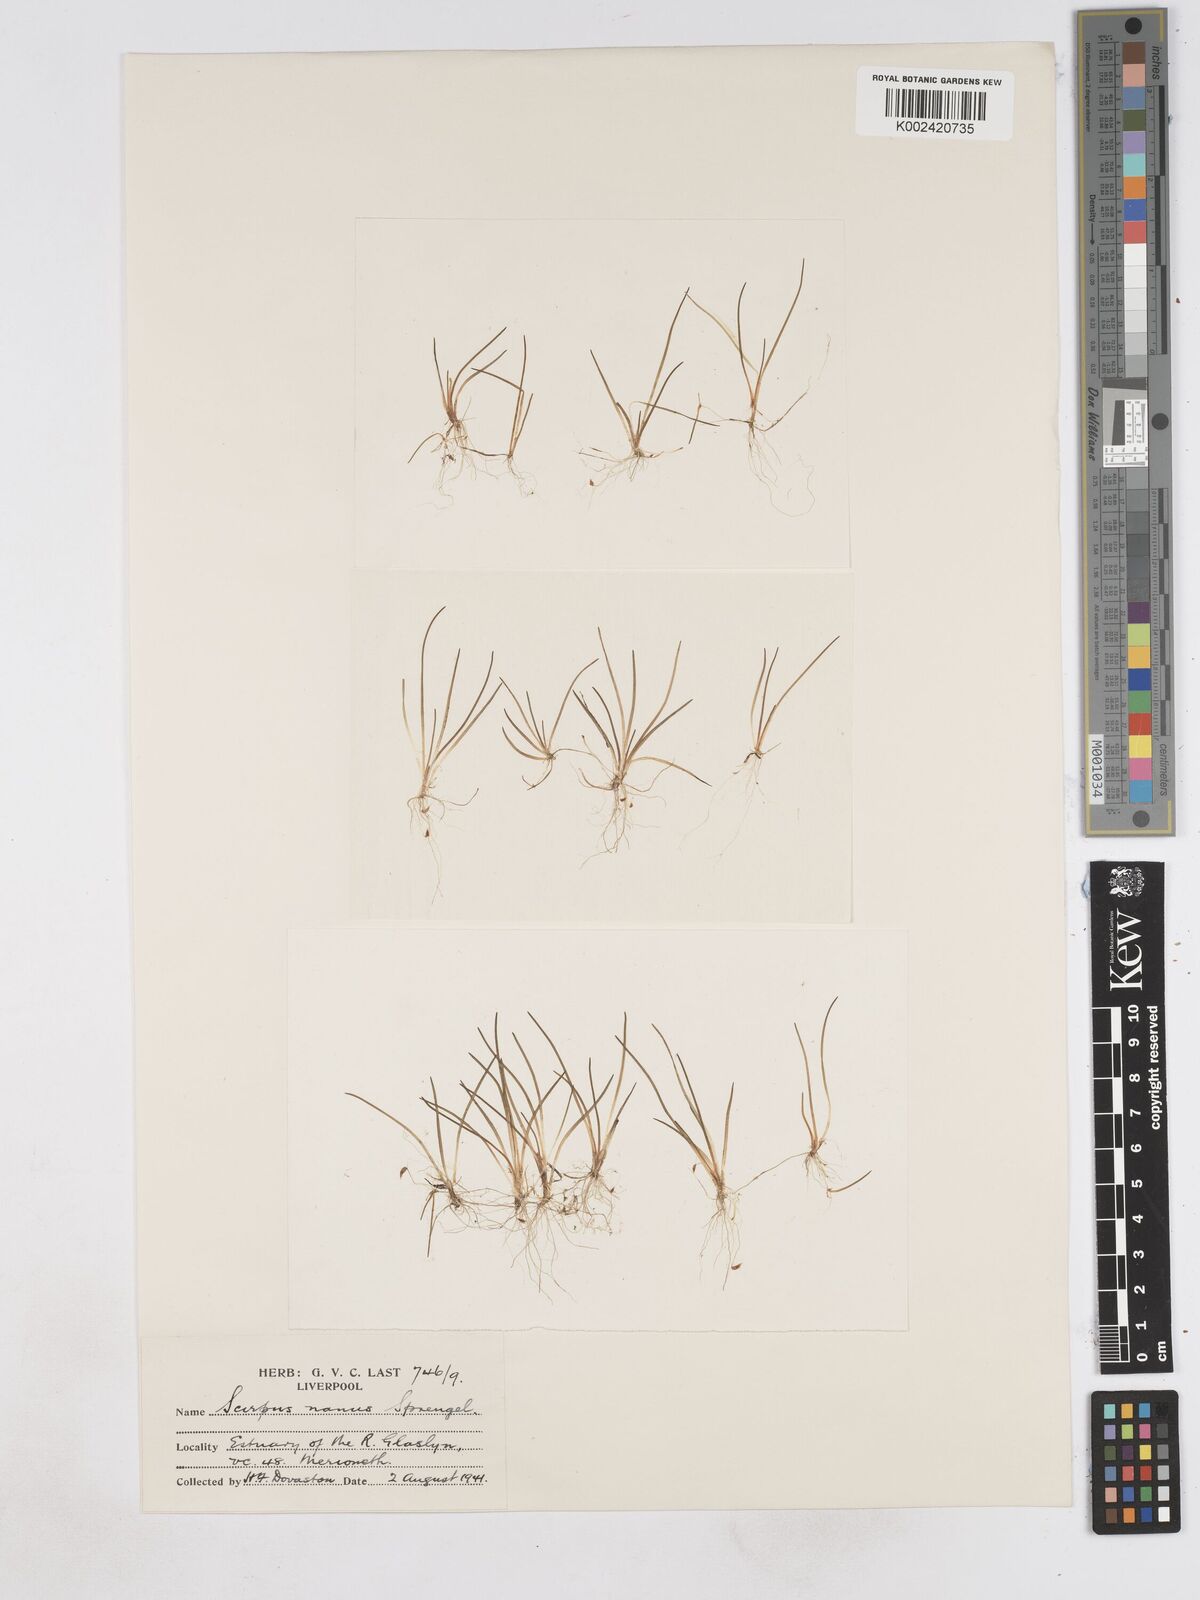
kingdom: Plantae
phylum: Tracheophyta
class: Liliopsida
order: Poales
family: Cyperaceae
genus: Eleocharis
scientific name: Eleocharis parvula
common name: Dwarf spike-rush
